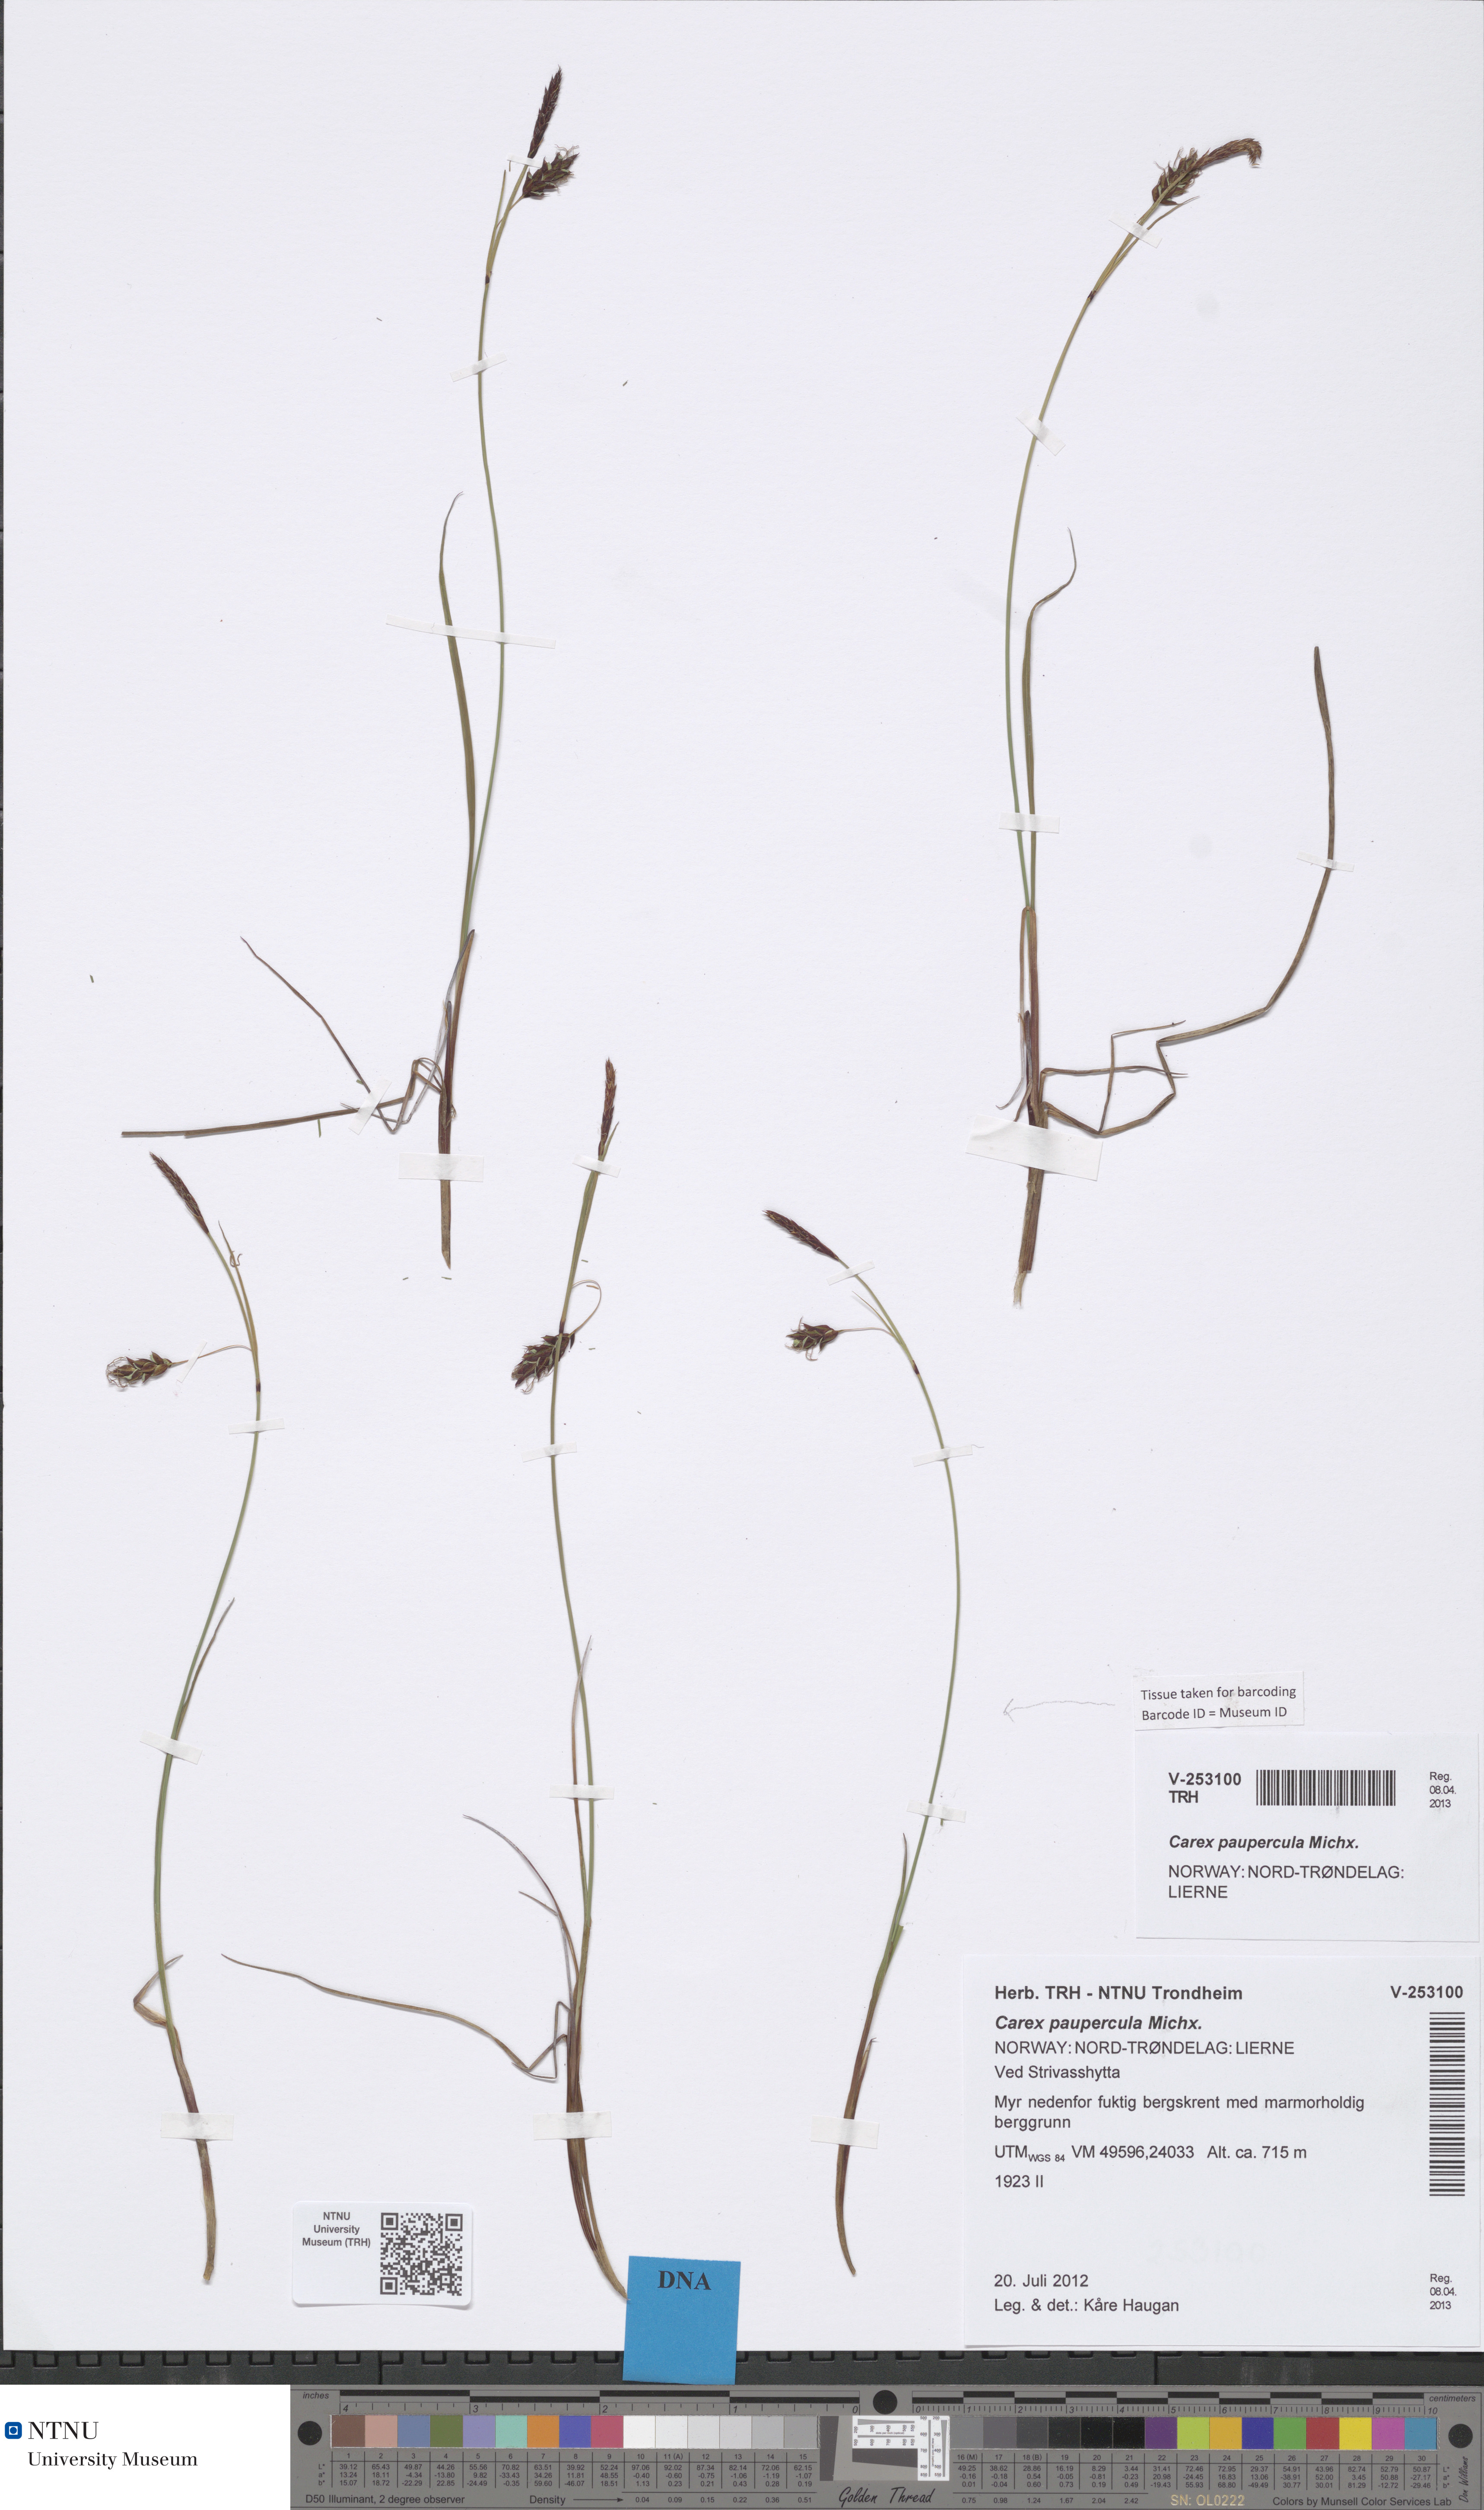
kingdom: Plantae
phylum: Tracheophyta
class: Liliopsida
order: Poales
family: Cyperaceae
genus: Carex
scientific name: Carex magellanica
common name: Bog sedge
